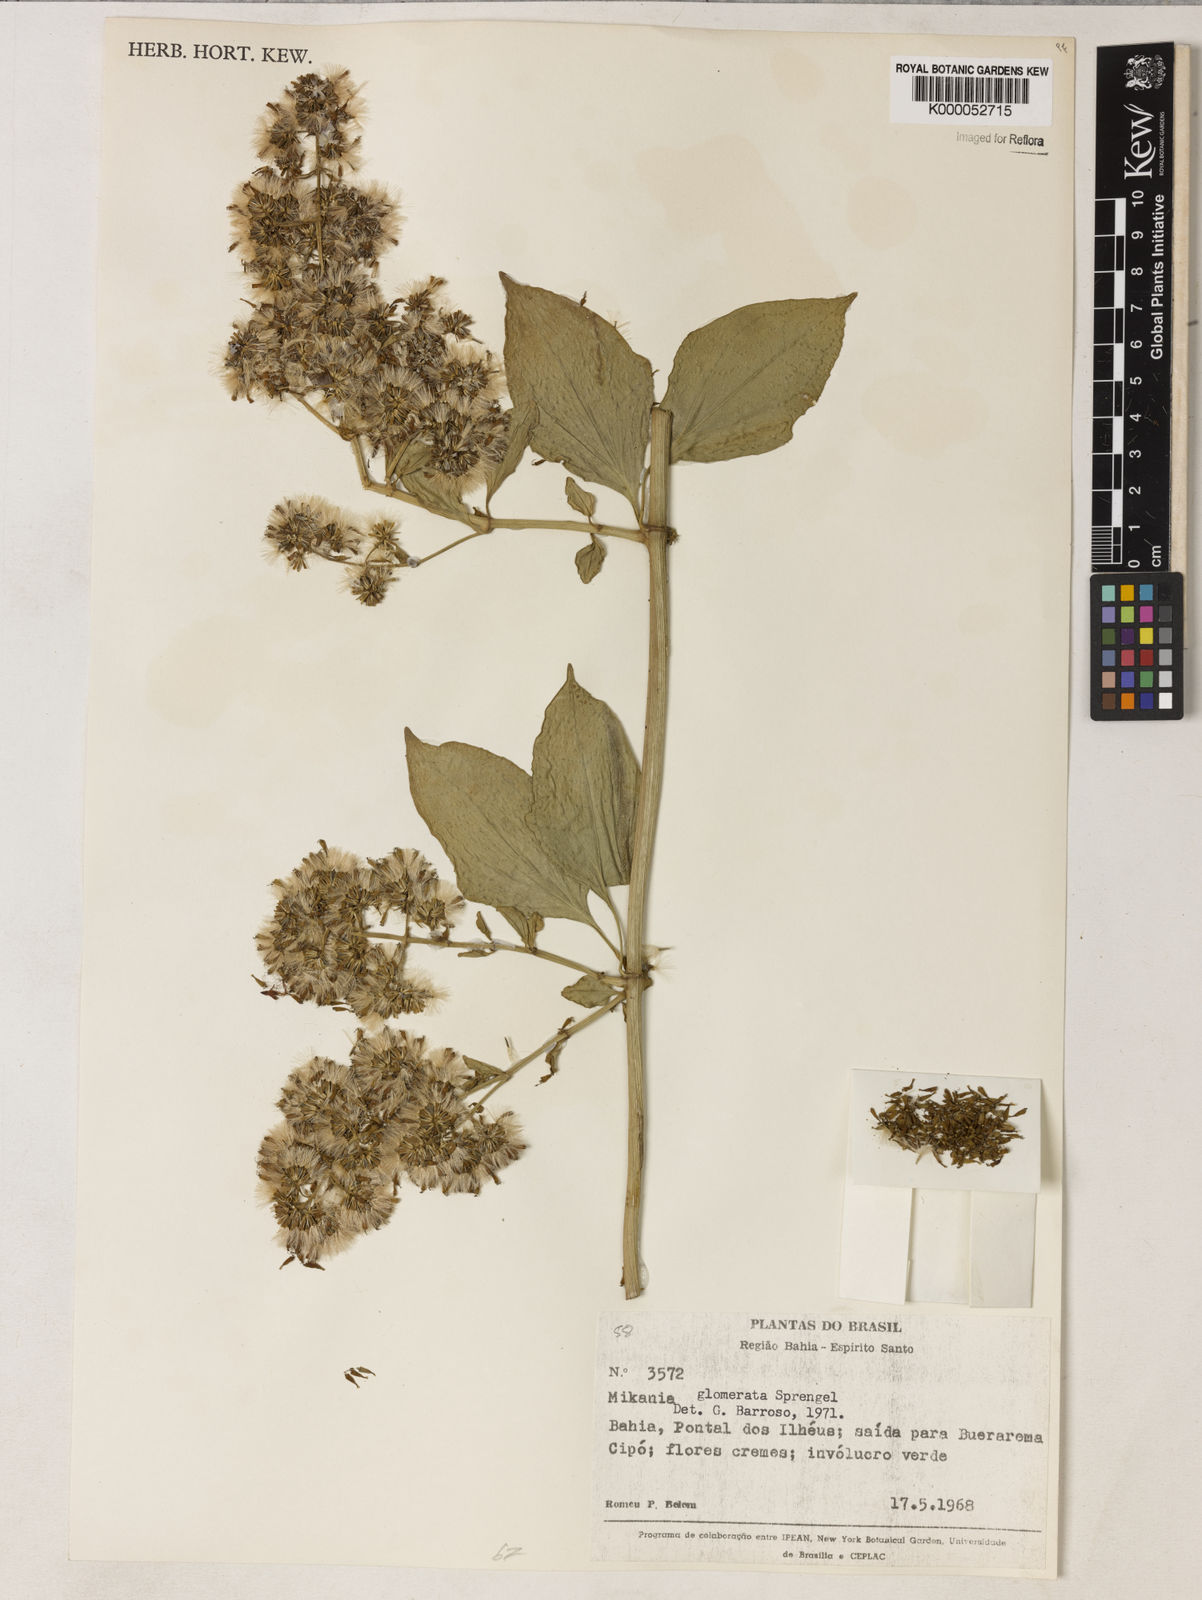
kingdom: Plantae
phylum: Tracheophyta
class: Magnoliopsida
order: Asterales
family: Asteraceae
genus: Mikania
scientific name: Mikania glomerata
